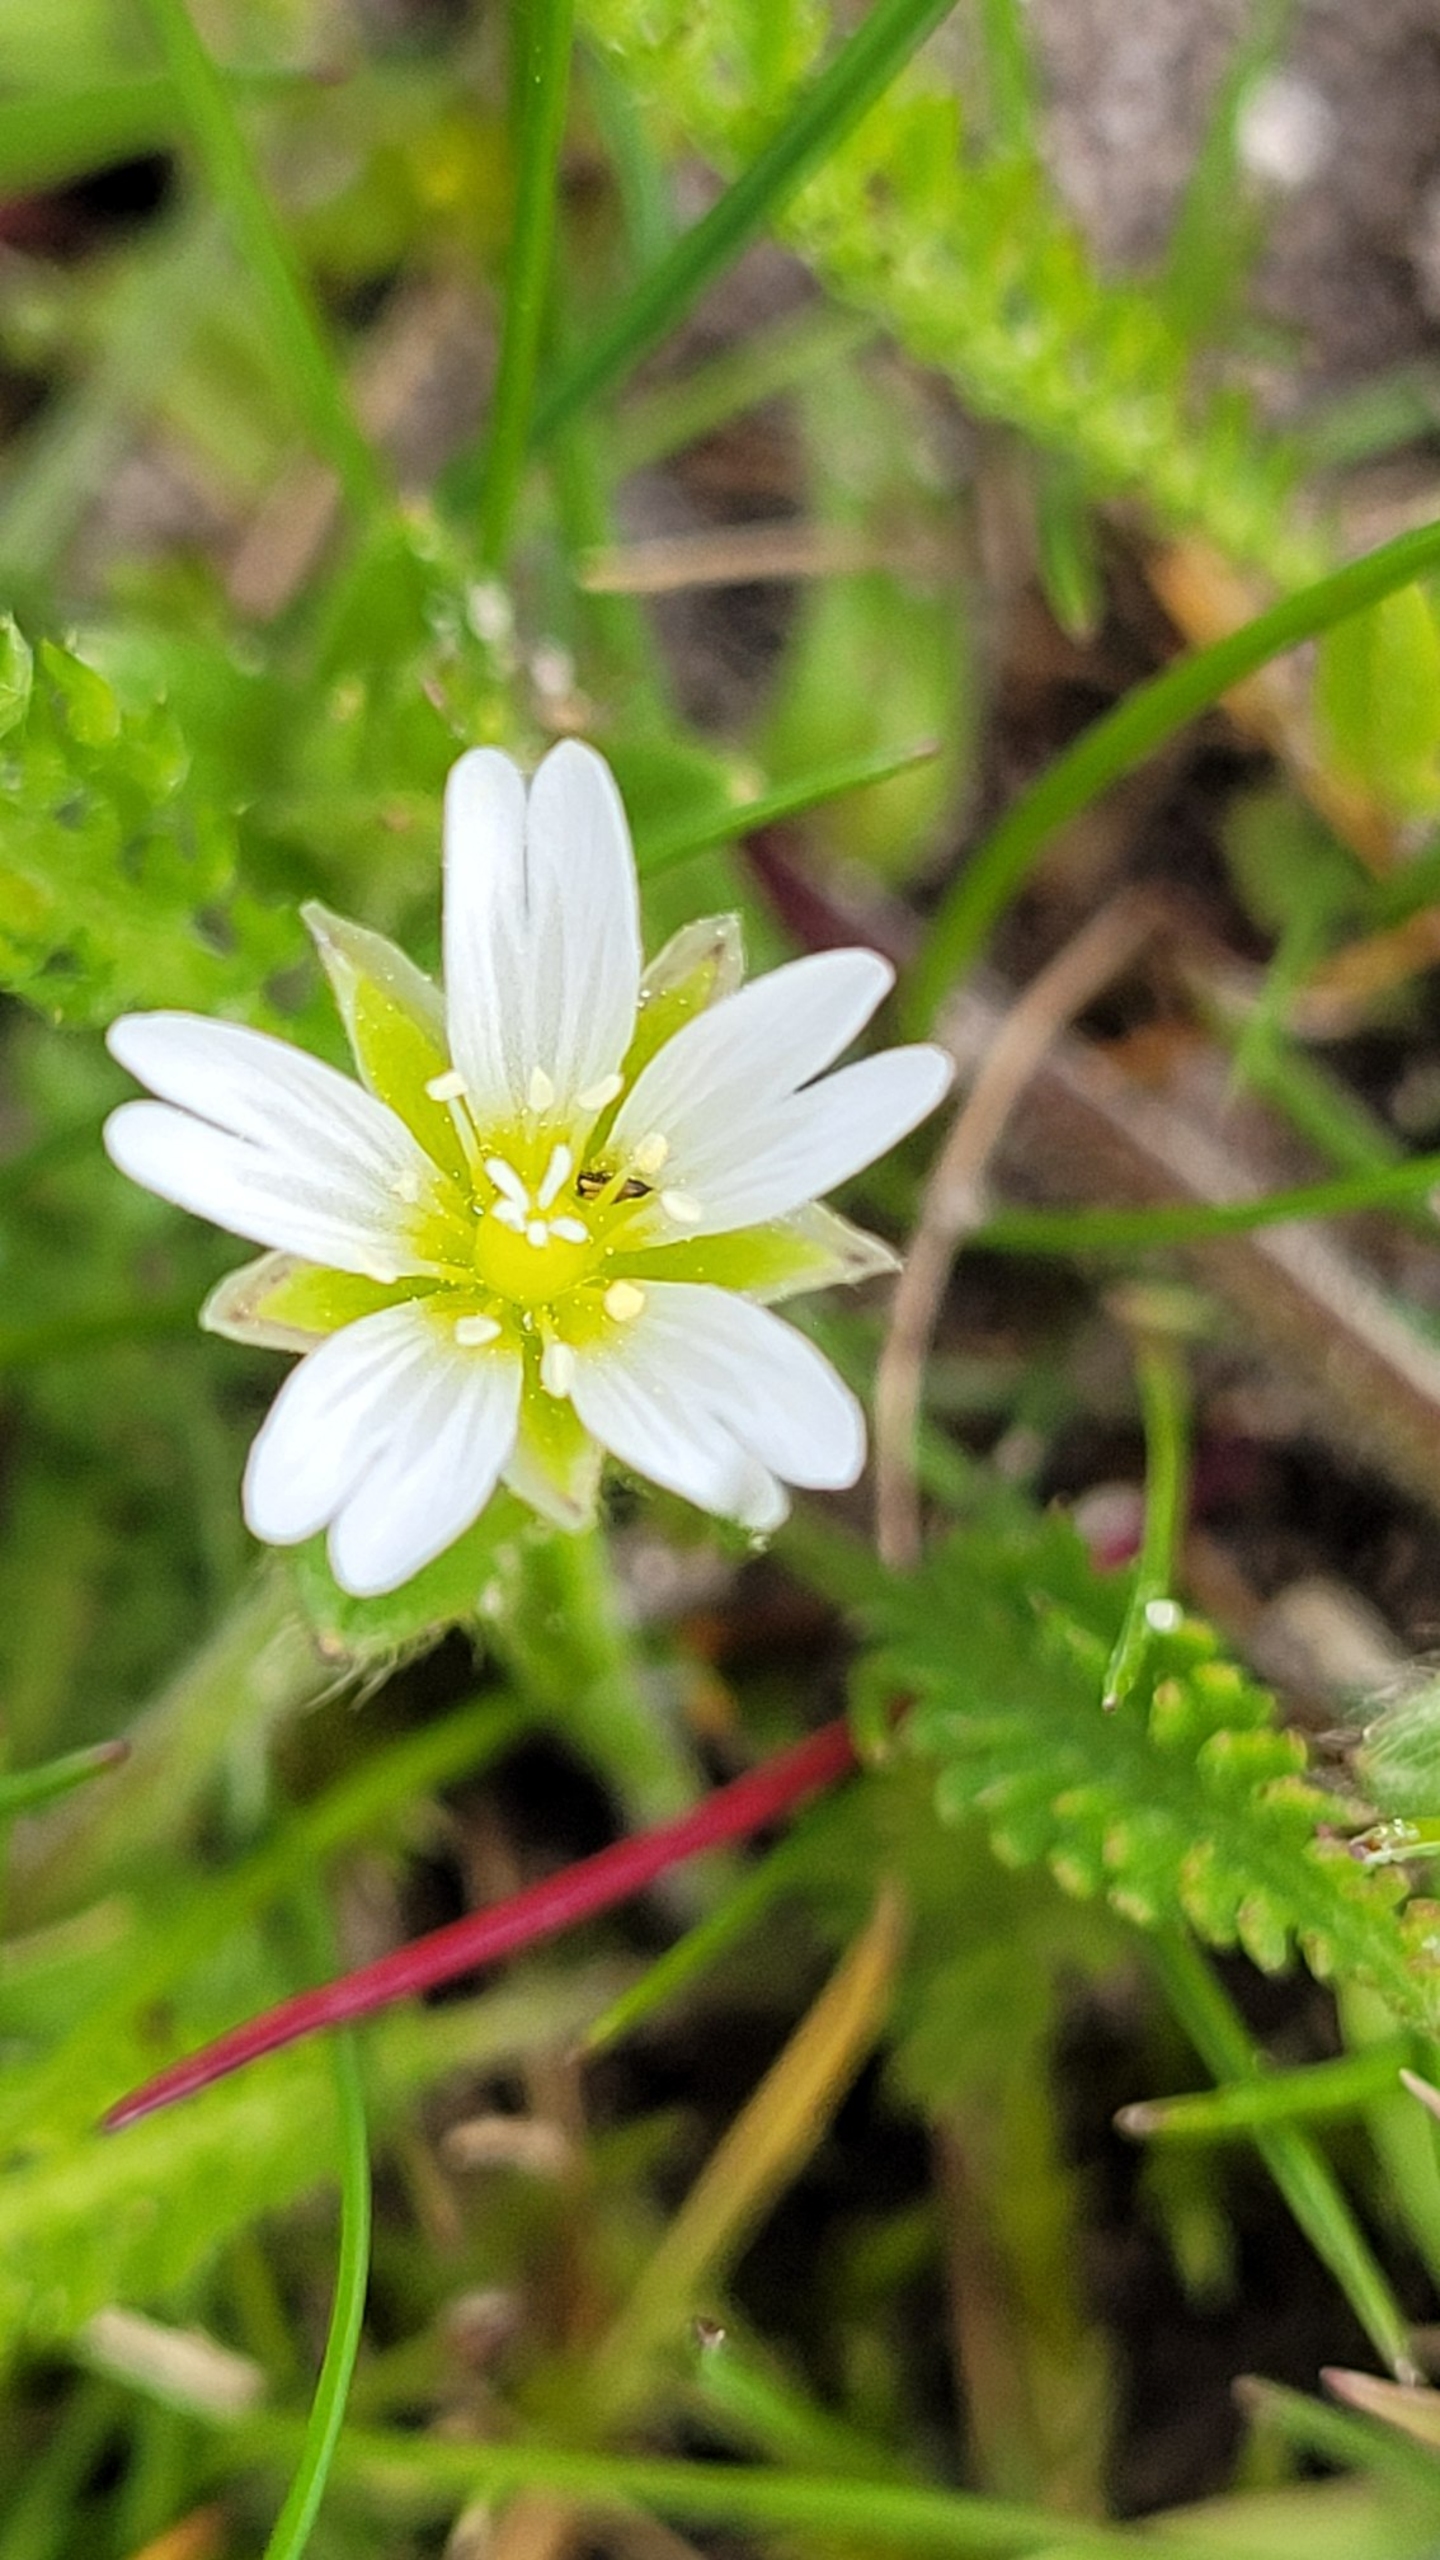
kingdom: Plantae
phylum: Tracheophyta
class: Magnoliopsida
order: Caryophyllales
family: Caryophyllaceae
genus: Cerastium
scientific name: Cerastium fontanum
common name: Almindelig hønsetarm
